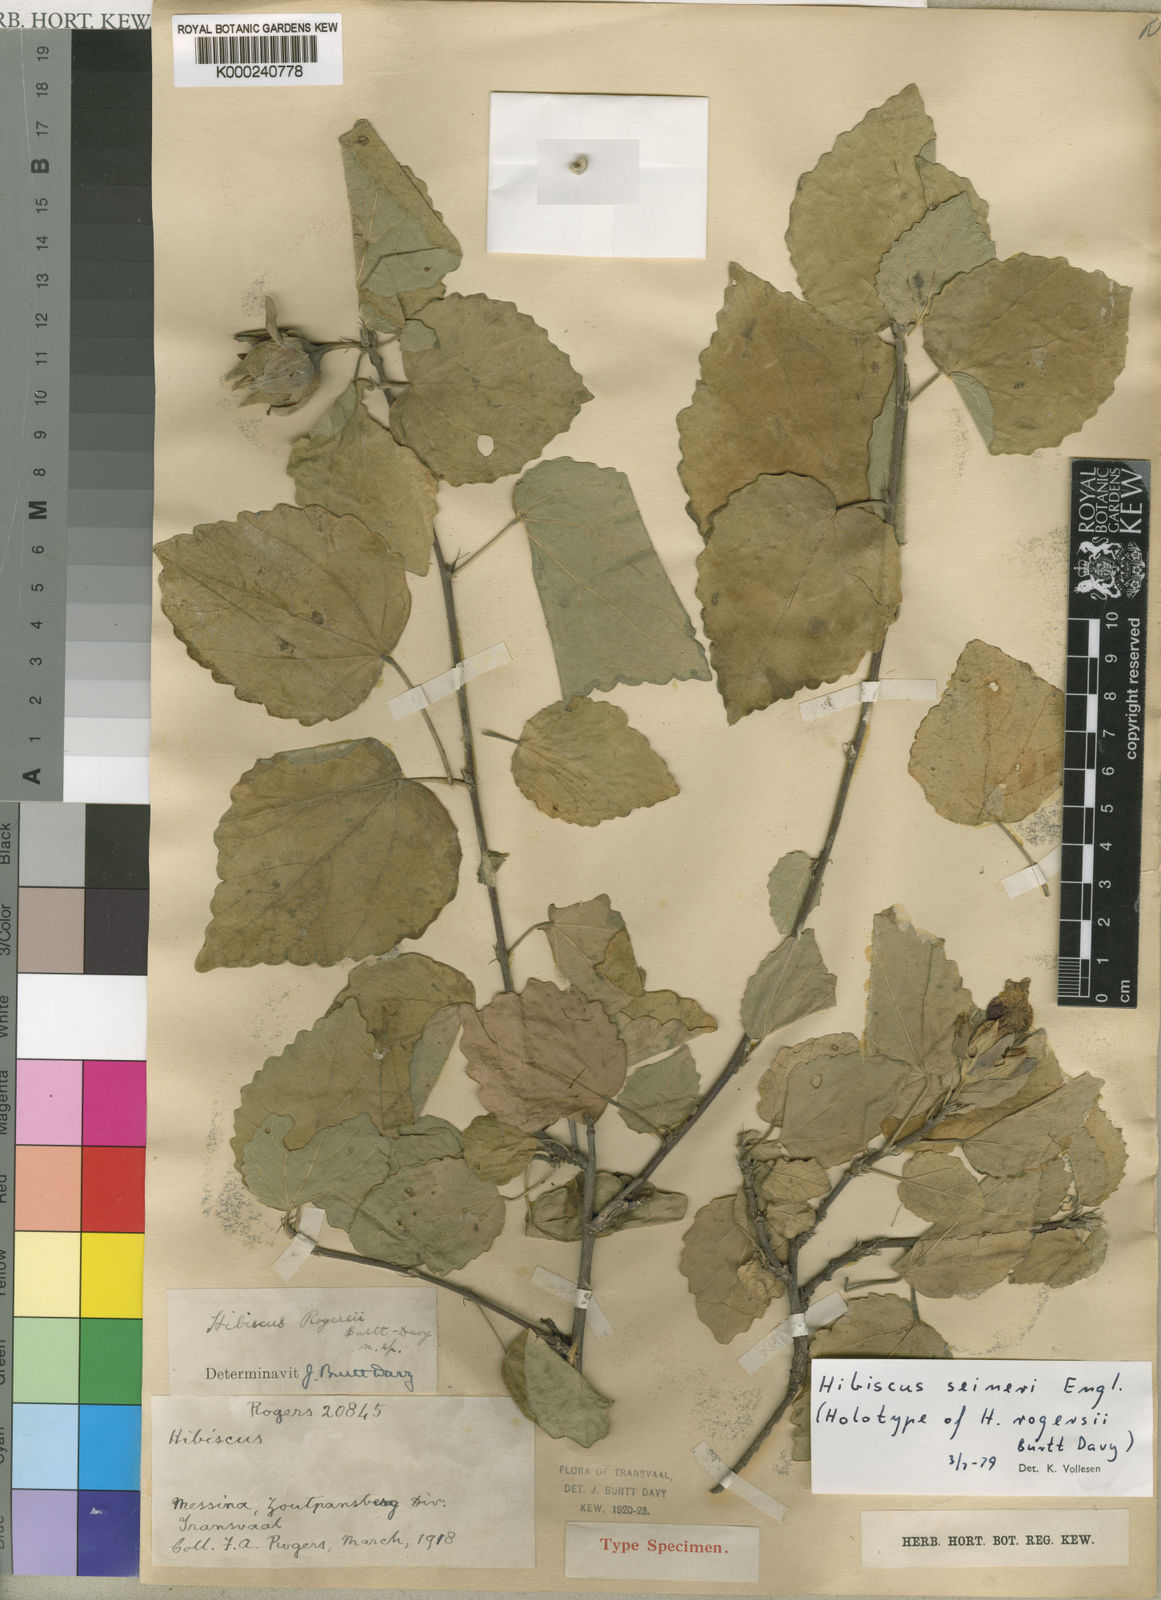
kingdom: Plantae
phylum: Tracheophyta
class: Magnoliopsida
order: Malvales
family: Malvaceae
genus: Hibiscus
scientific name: Hibiscus
